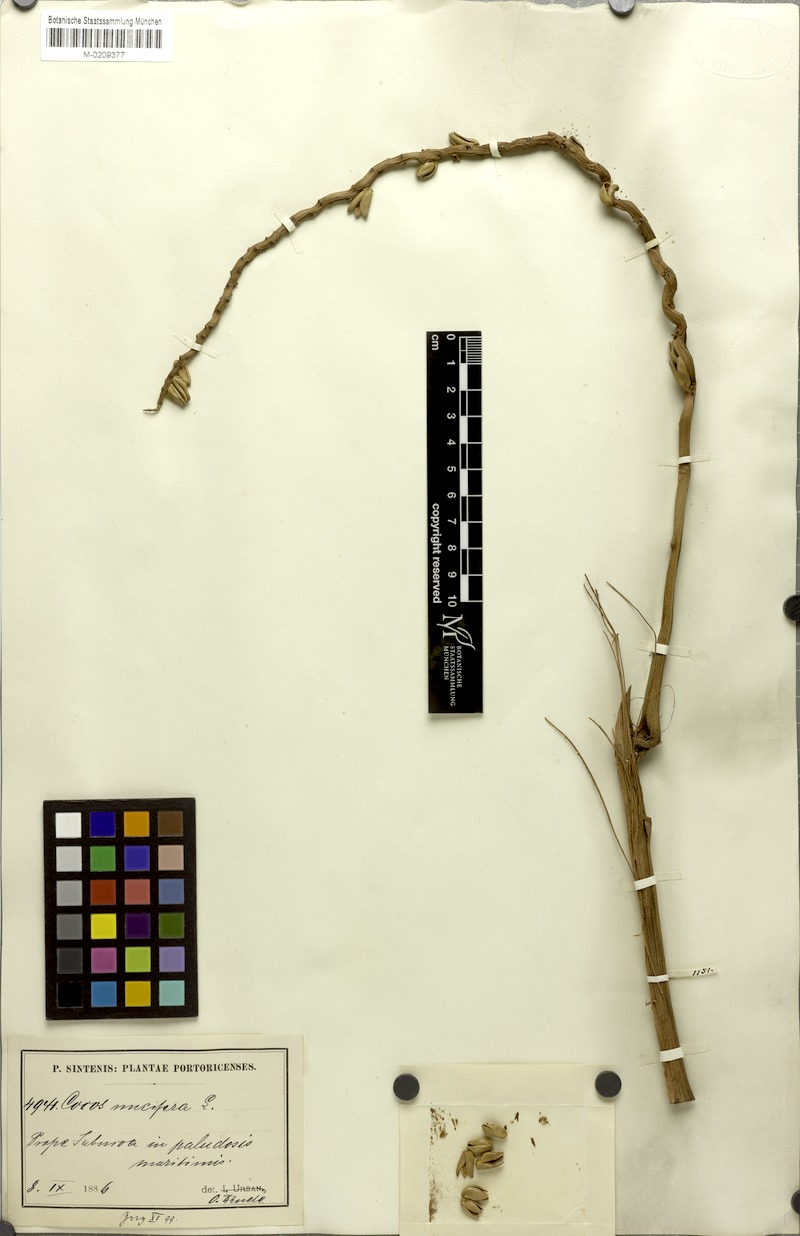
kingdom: Plantae
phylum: Tracheophyta
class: Liliopsida
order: Arecales
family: Arecaceae
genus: Cocos
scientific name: Cocos nucifera
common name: Coconut palm
